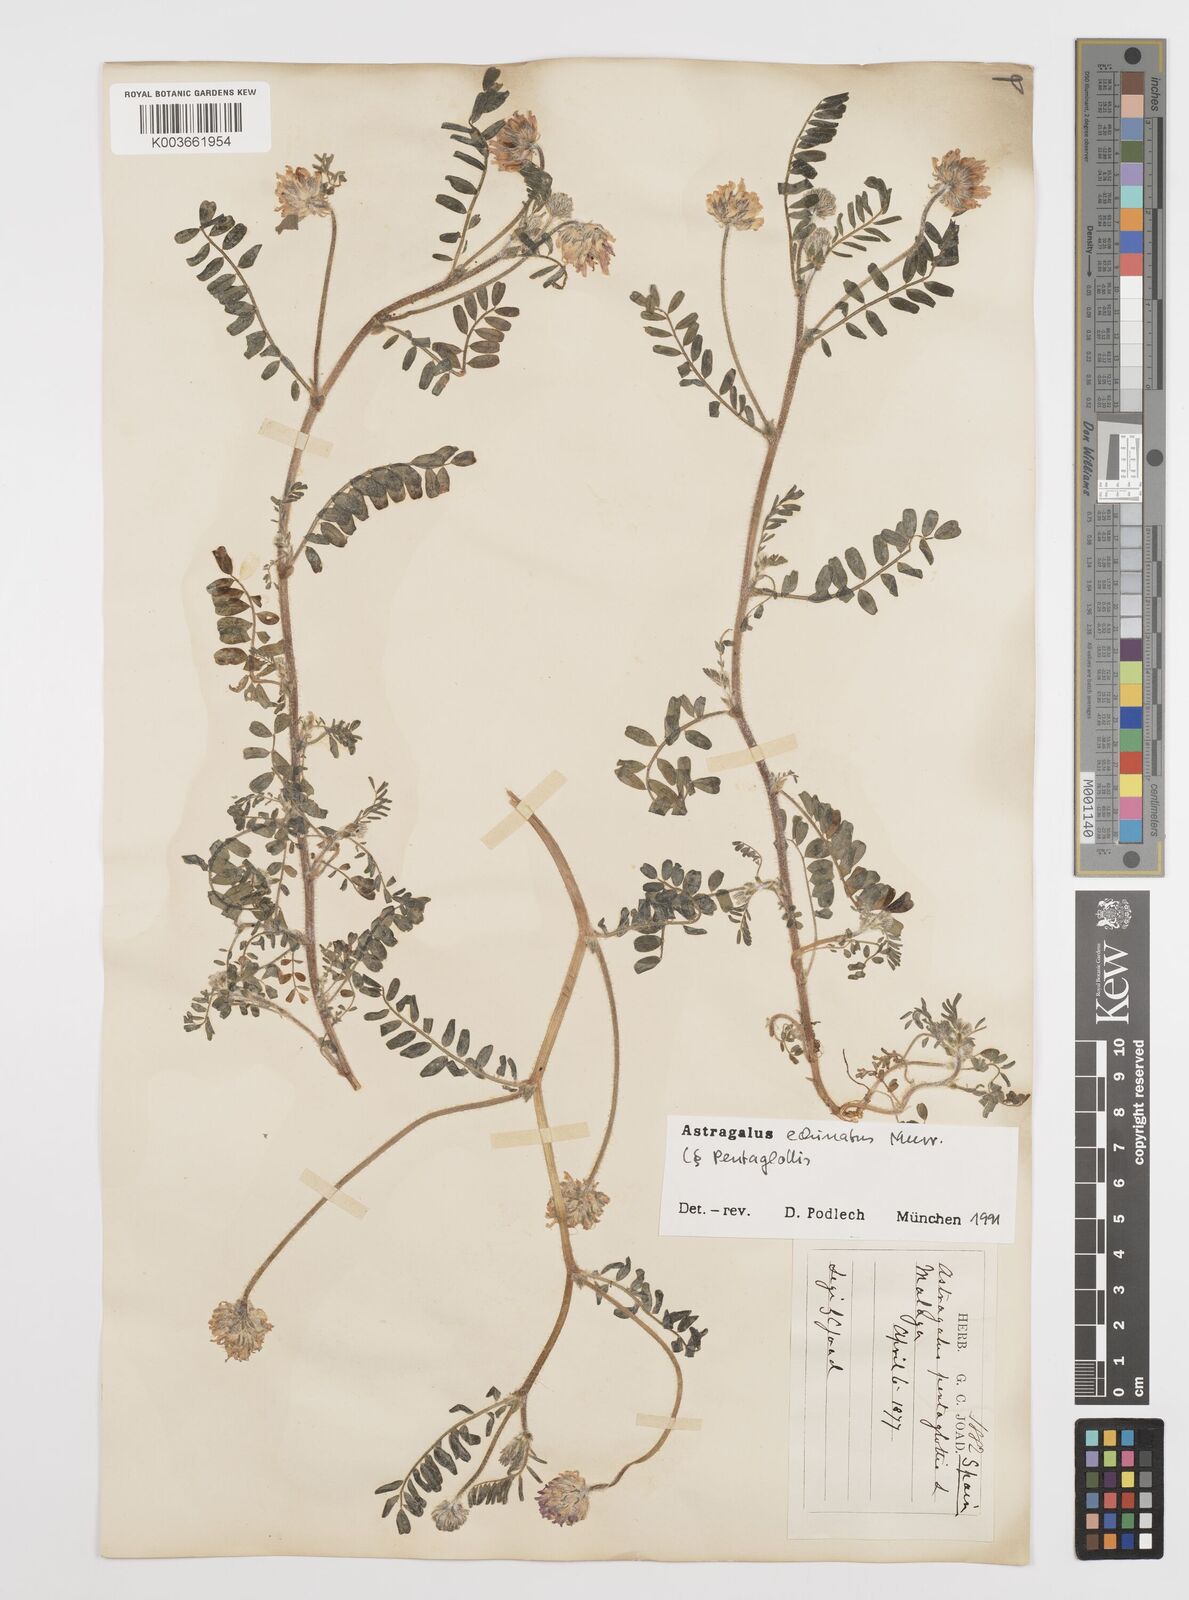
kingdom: Plantae
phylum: Tracheophyta
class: Magnoliopsida
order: Fabales
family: Fabaceae
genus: Astragalus
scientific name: Astragalus echinatus
